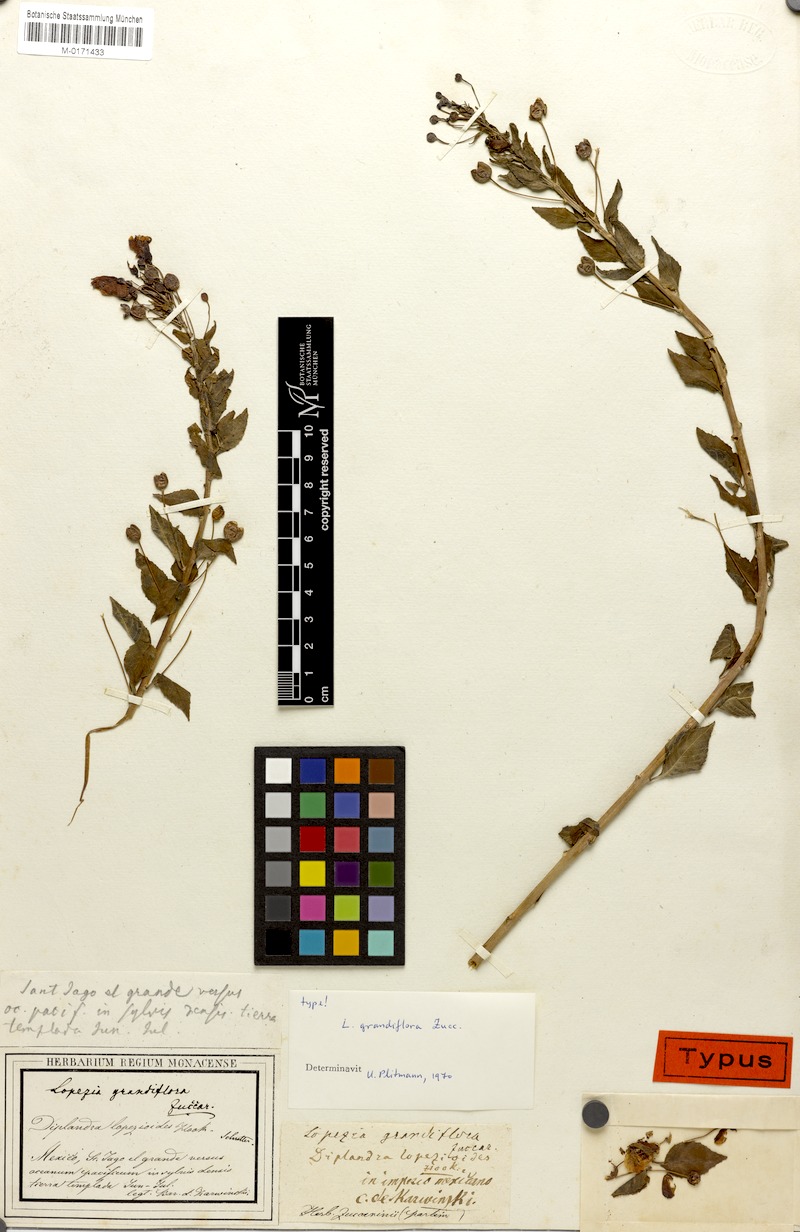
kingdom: Plantae
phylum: Tracheophyta
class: Magnoliopsida
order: Myrtales
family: Onagraceae
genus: Lopezia
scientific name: Lopezia grandiflora
